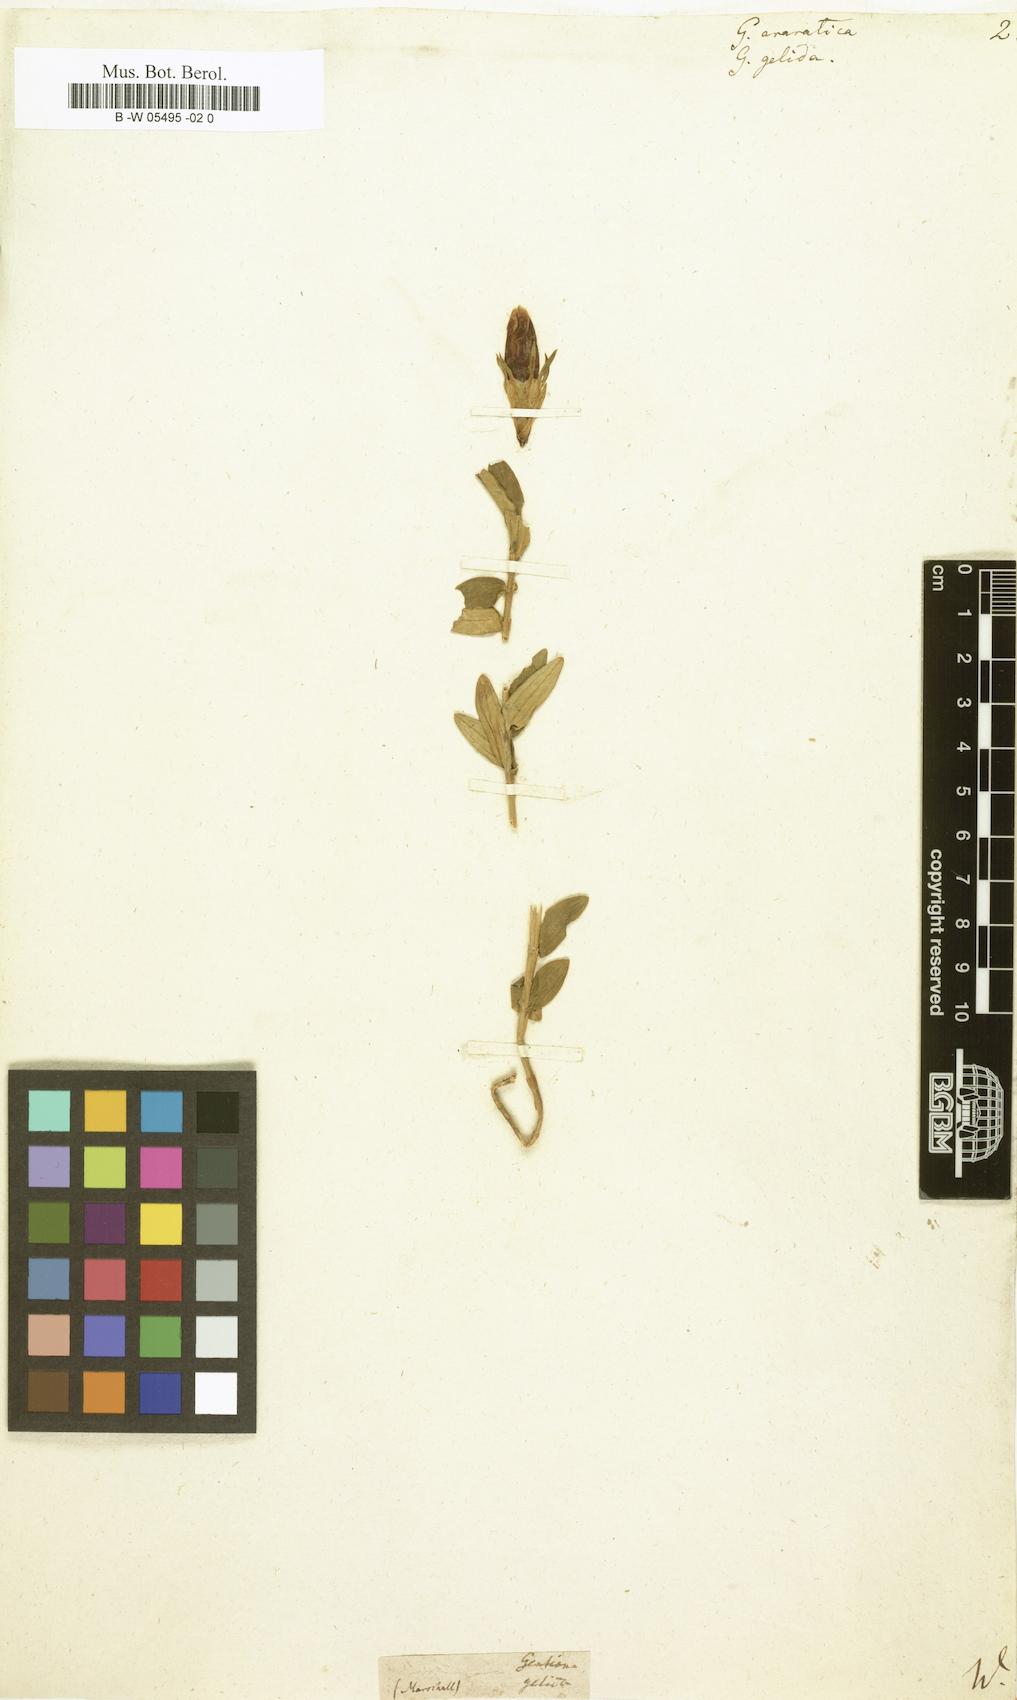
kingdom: Plantae
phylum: Tracheophyta
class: Magnoliopsida
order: Gentianales
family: Gentianaceae
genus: Gentiana
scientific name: Gentiana gelida
